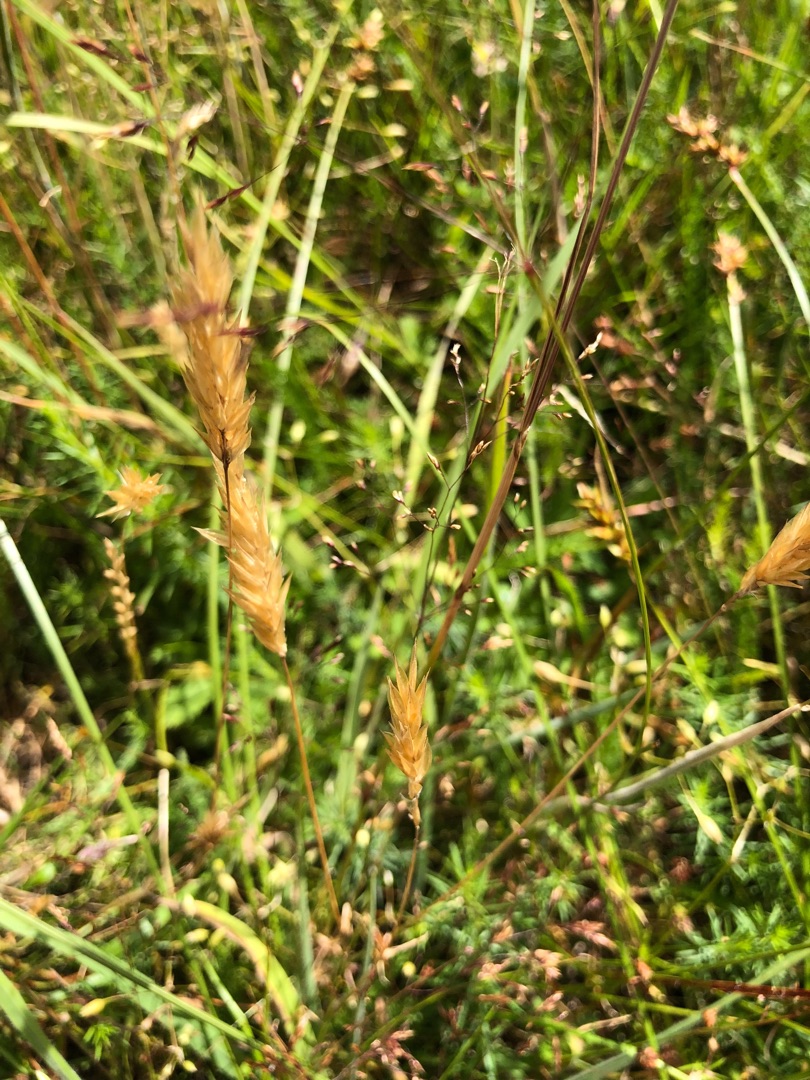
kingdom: Plantae
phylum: Tracheophyta
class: Liliopsida
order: Poales
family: Poaceae
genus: Anthoxanthum
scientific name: Anthoxanthum odoratum
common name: Vellugtende gulaks
